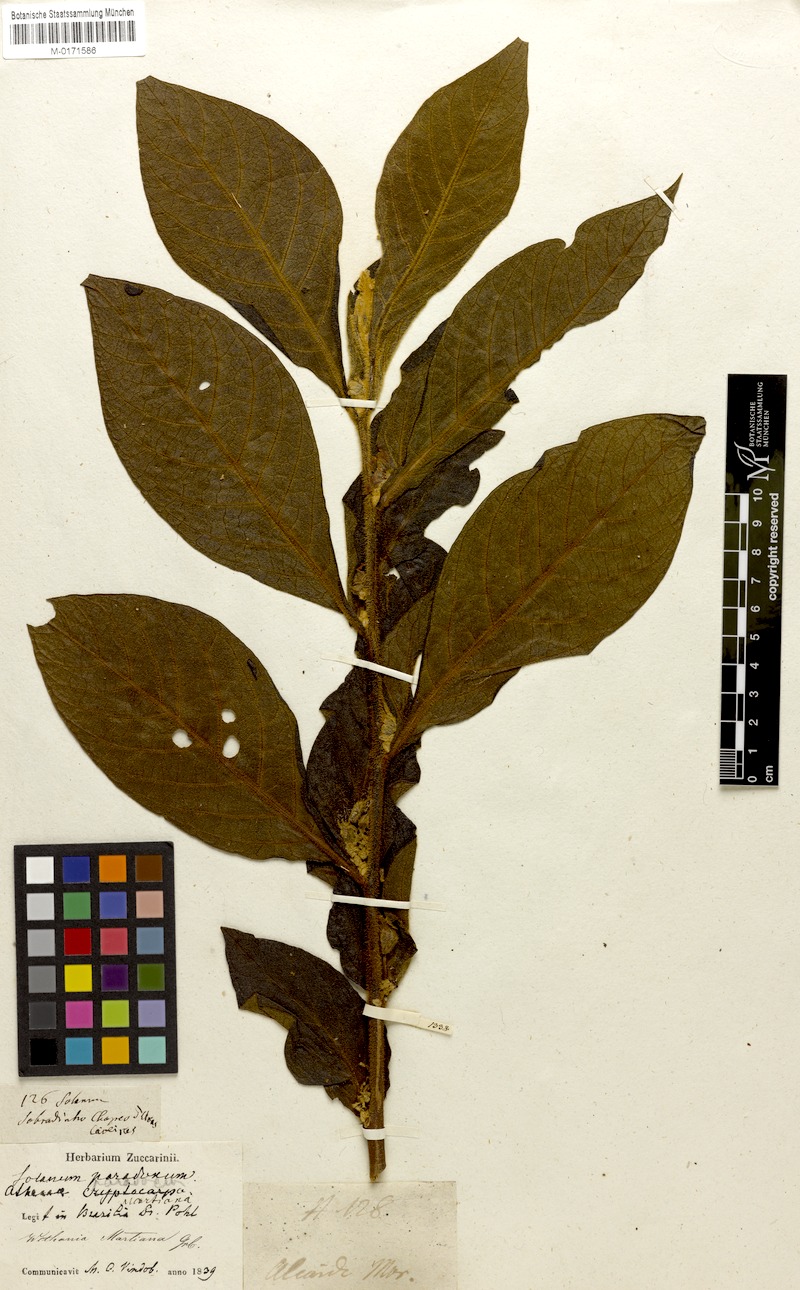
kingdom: Plantae
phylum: Tracheophyta
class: Magnoliopsida
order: Solanales
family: Solanaceae
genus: Athenaea
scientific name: Athenaea martiana
